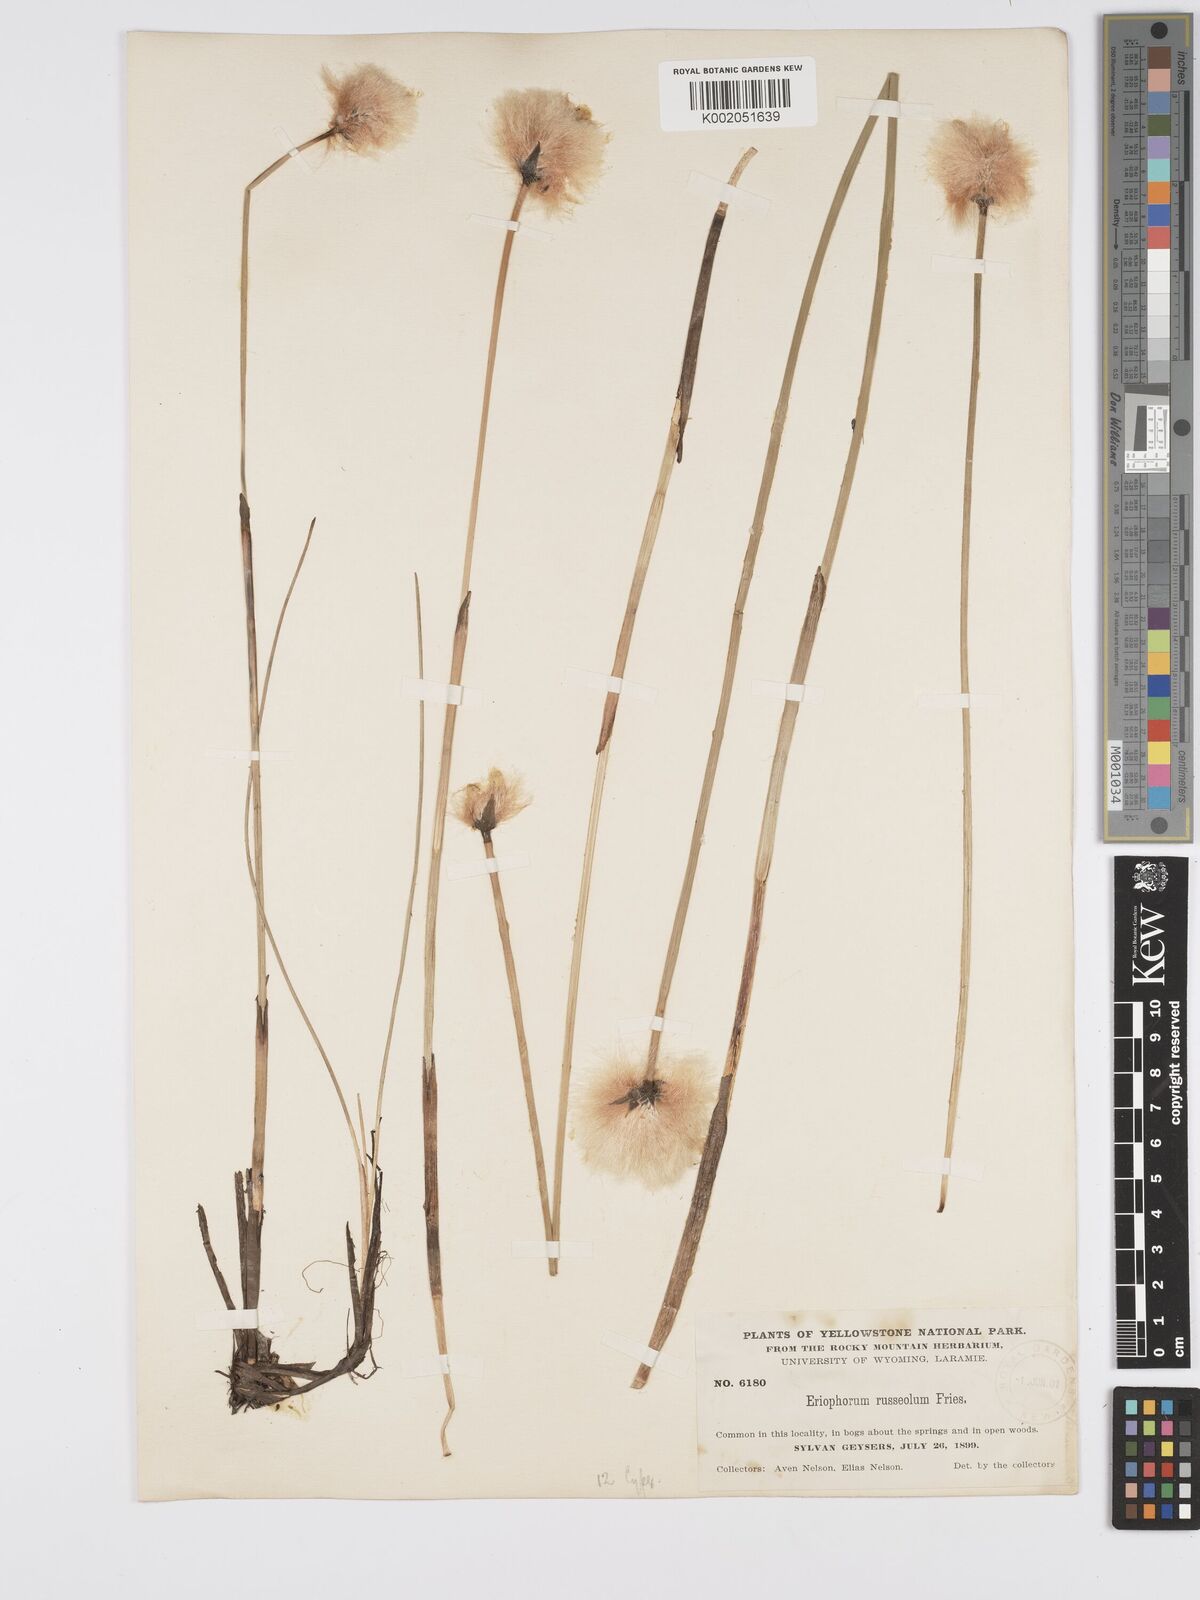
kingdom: Plantae
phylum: Tracheophyta
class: Liliopsida
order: Poales
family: Cyperaceae
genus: Eriophorum
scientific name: Eriophorum chamissonis
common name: Chamisso's cottongrass
